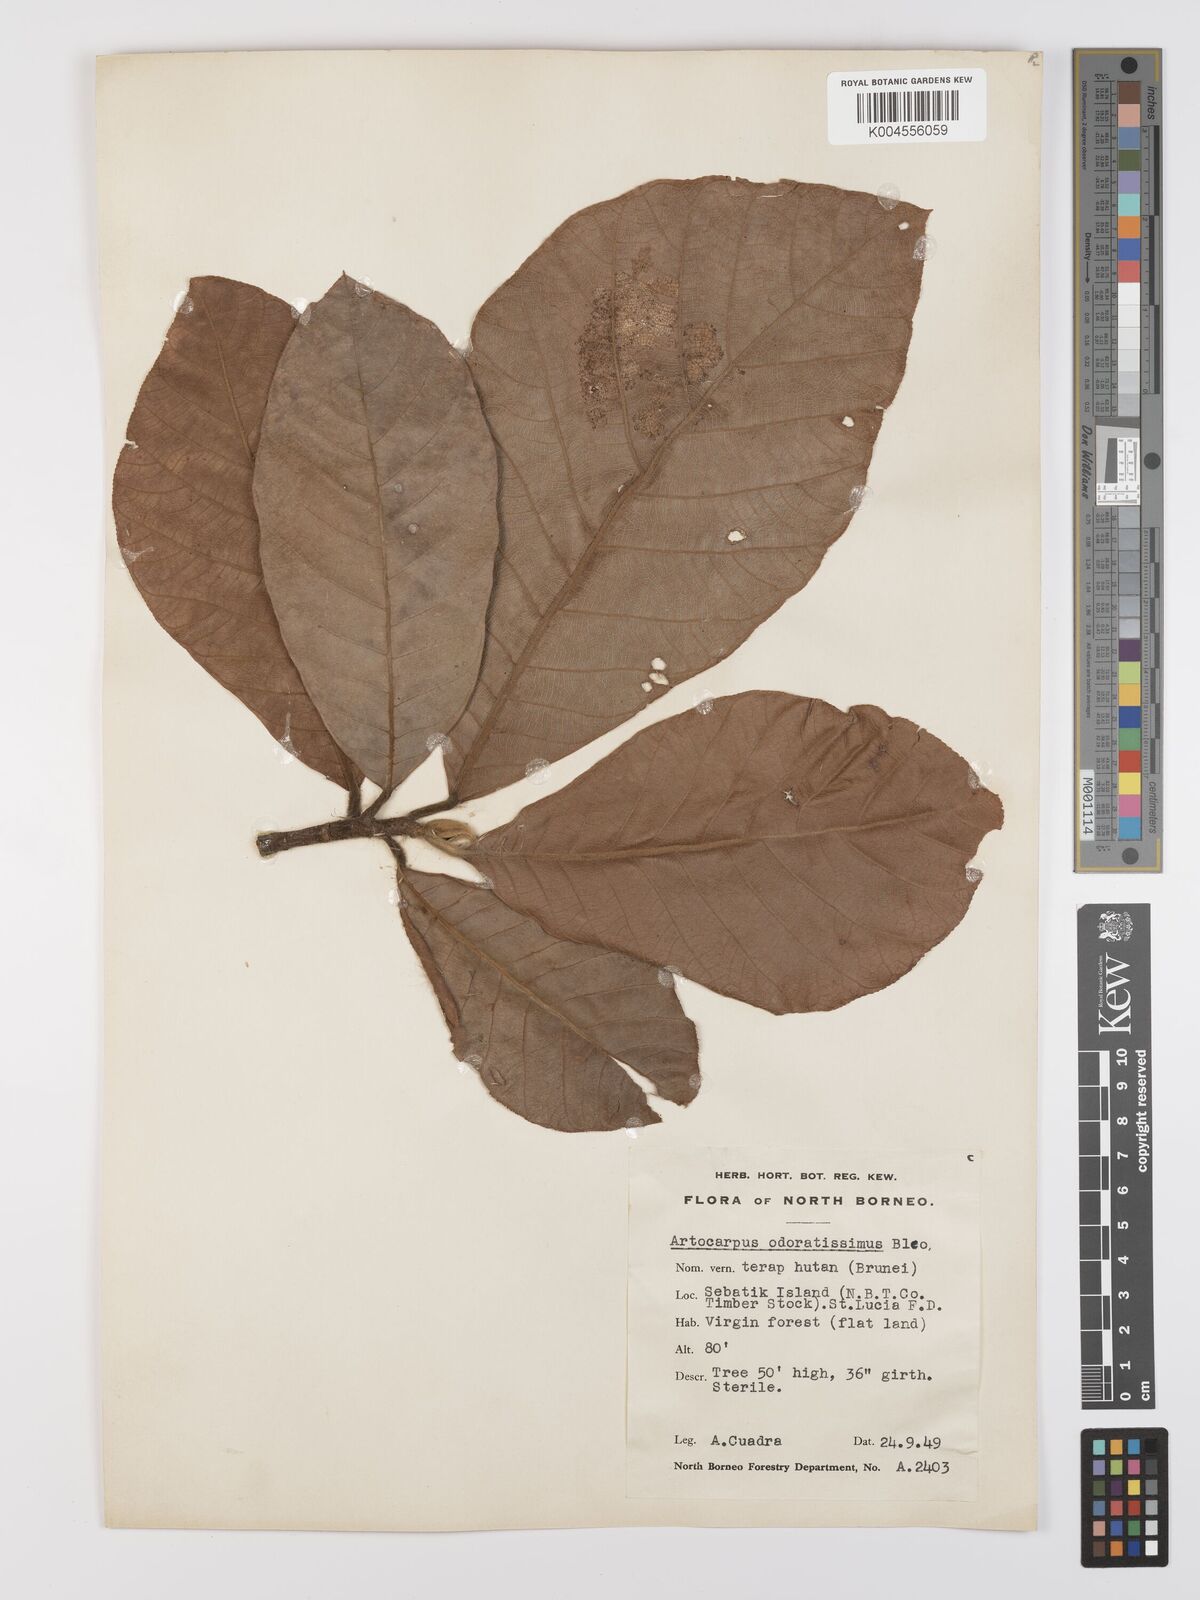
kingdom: Plantae
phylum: Tracheophyta
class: Magnoliopsida
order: Rosales
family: Moraceae
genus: Artocarpus
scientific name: Artocarpus odoratissimus
